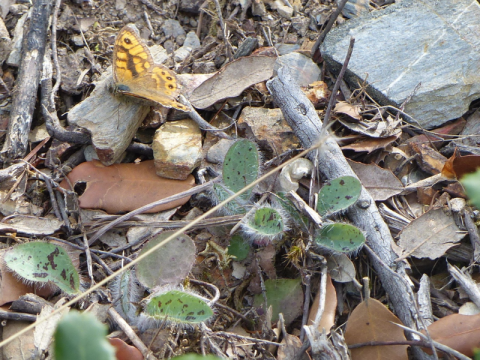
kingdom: Animalia
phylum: Arthropoda
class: Insecta
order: Lepidoptera
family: Nymphalidae
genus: Pararge
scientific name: Pararge aegeria
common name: Speckled Wood Butterfly
